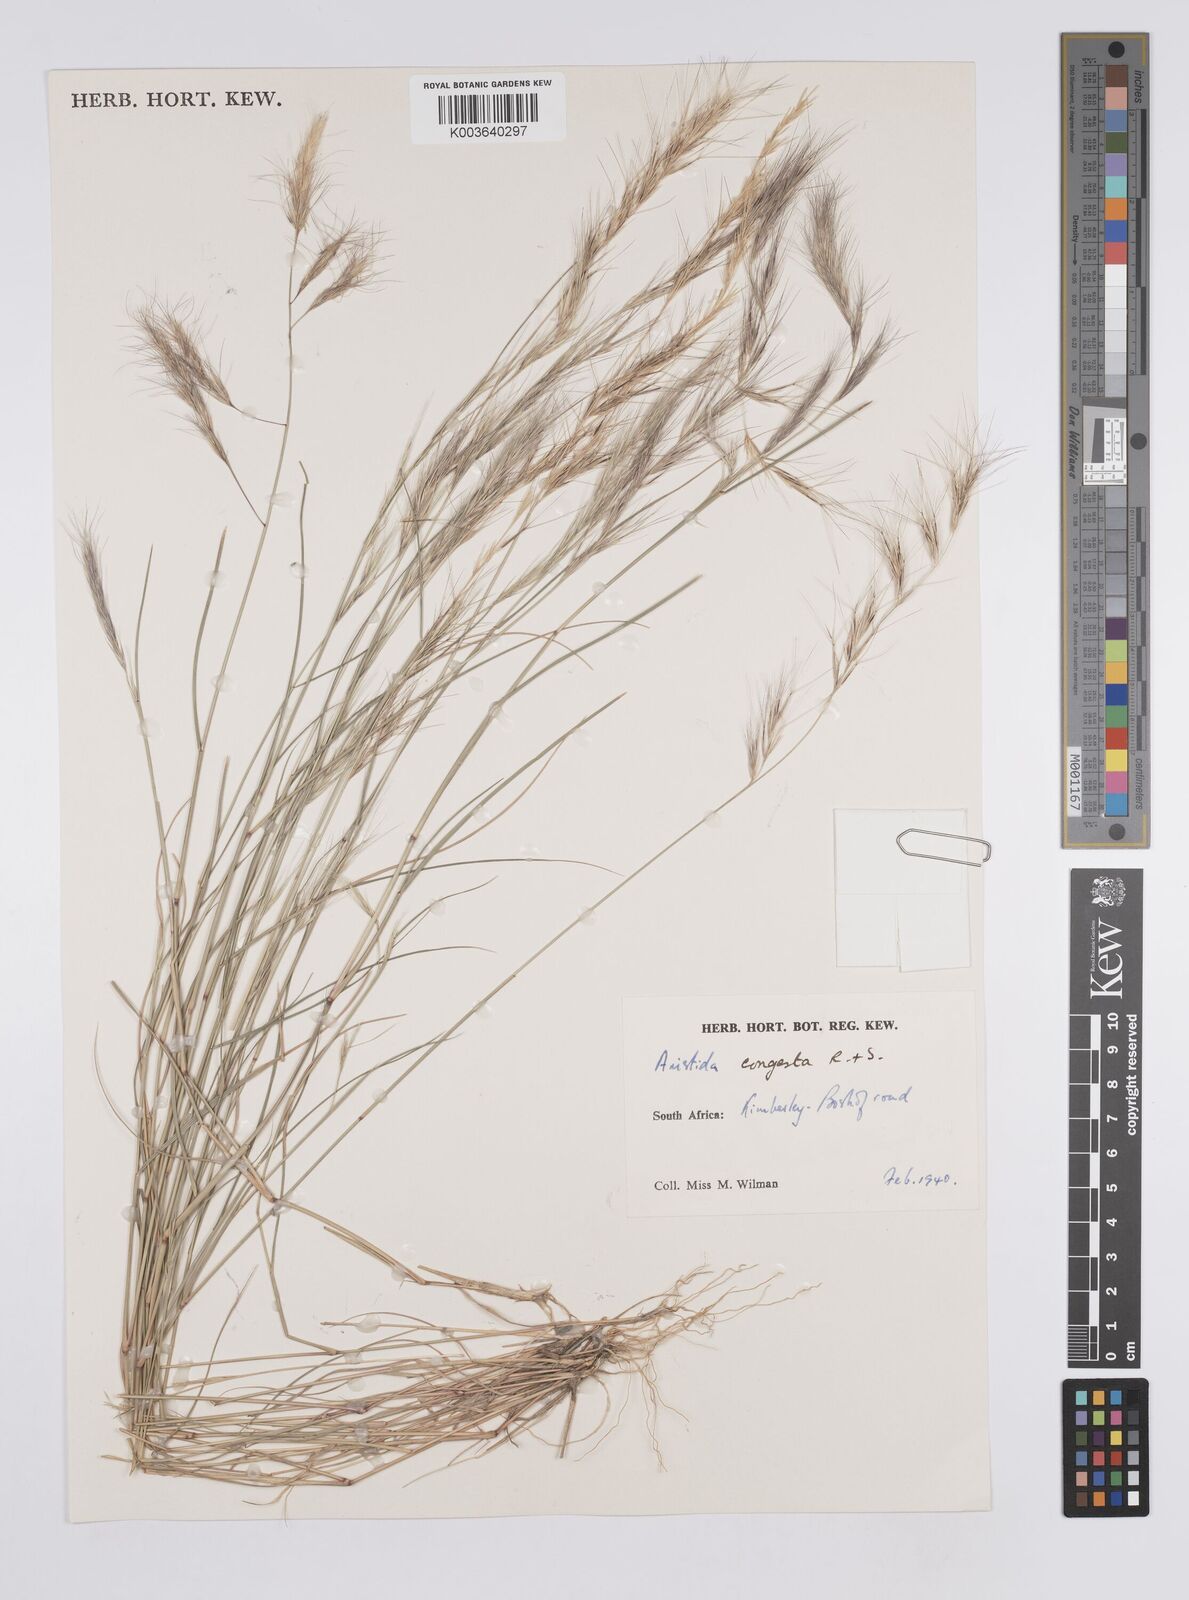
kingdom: Plantae
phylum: Tracheophyta
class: Liliopsida
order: Poales
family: Poaceae
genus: Aristida
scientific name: Aristida congesta
